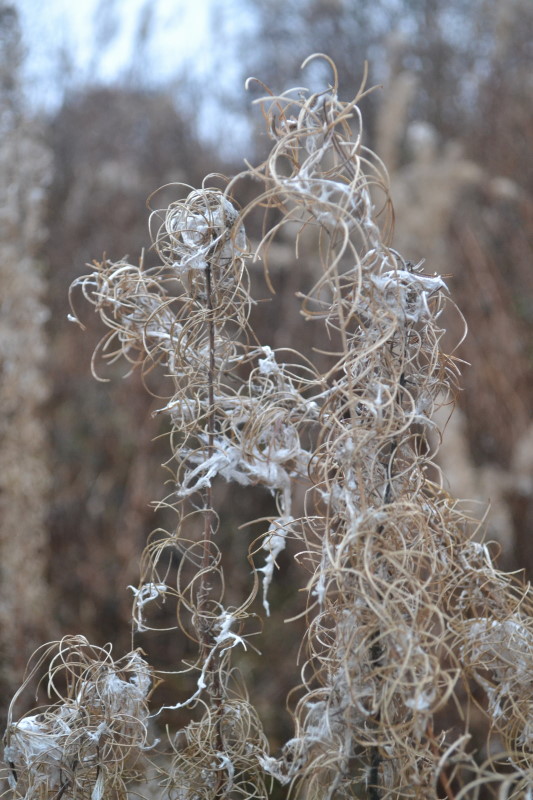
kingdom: Plantae
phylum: Tracheophyta
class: Magnoliopsida
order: Myrtales
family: Onagraceae
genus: Chamaenerion
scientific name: Chamaenerion angustifolium
